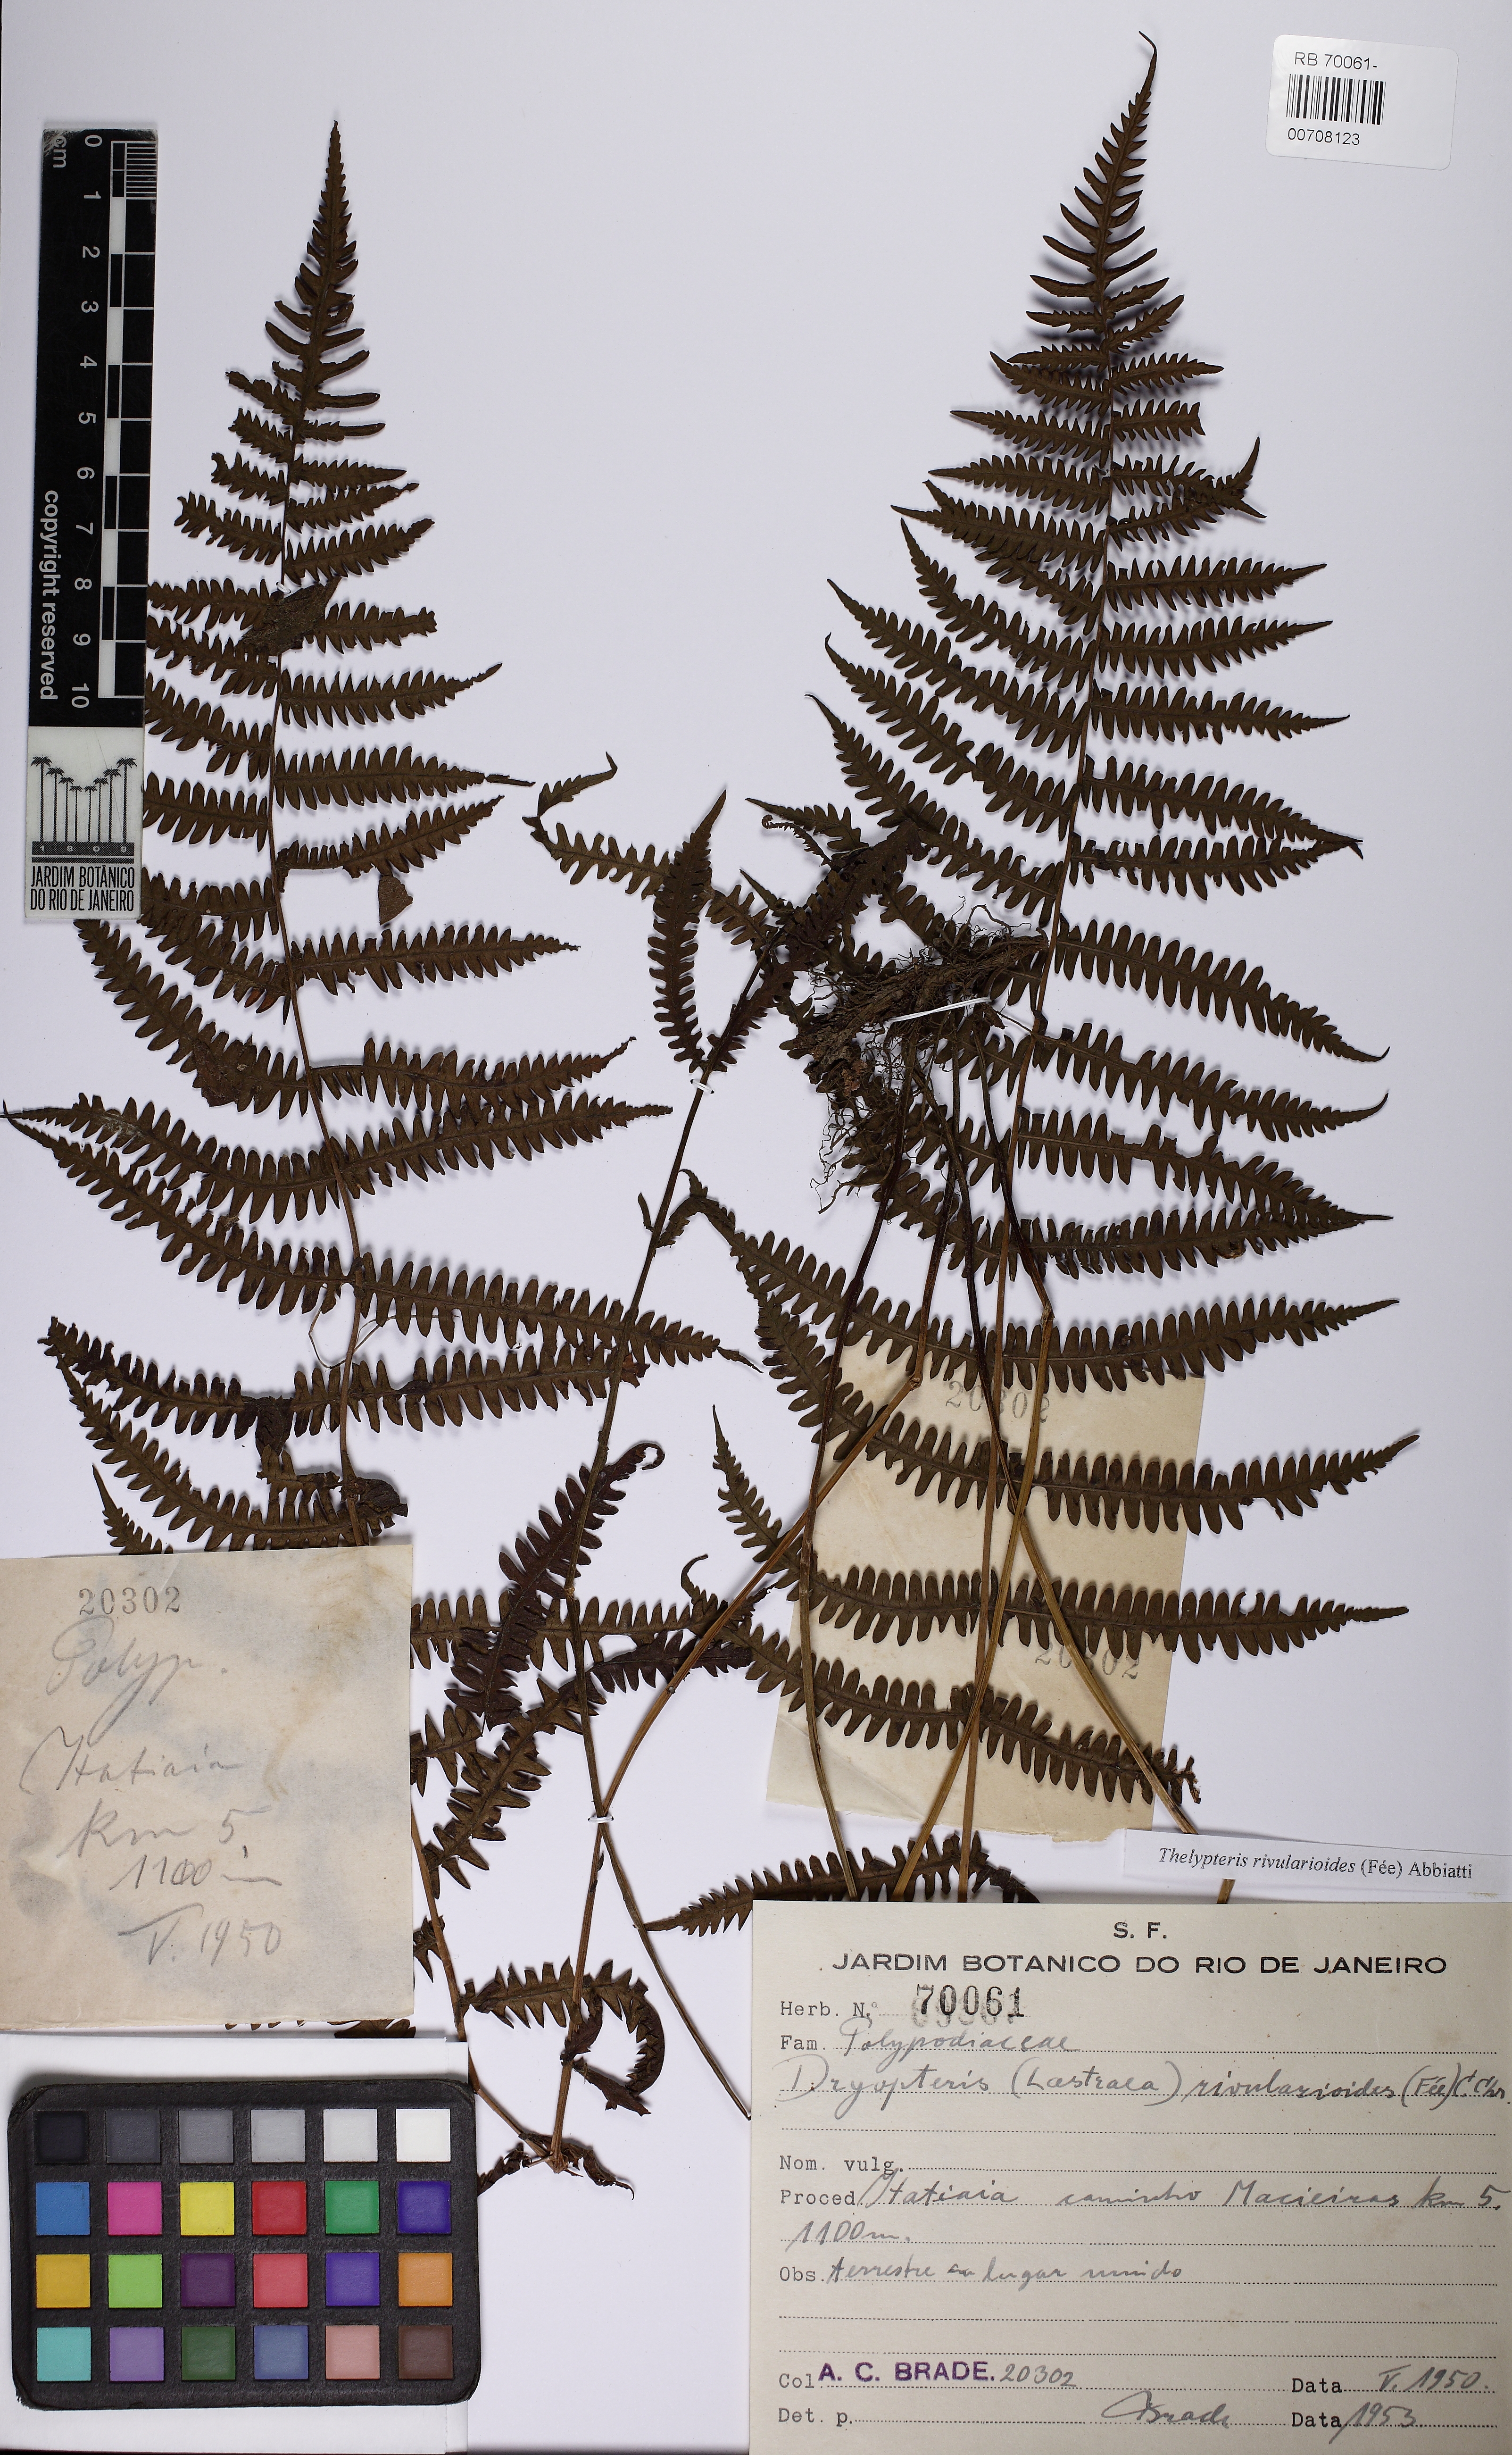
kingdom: Plantae
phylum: Tracheophyta
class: Polypodiopsida
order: Polypodiales
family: Thelypteridaceae
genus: Amauropelta
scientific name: Amauropelta rivularioides
